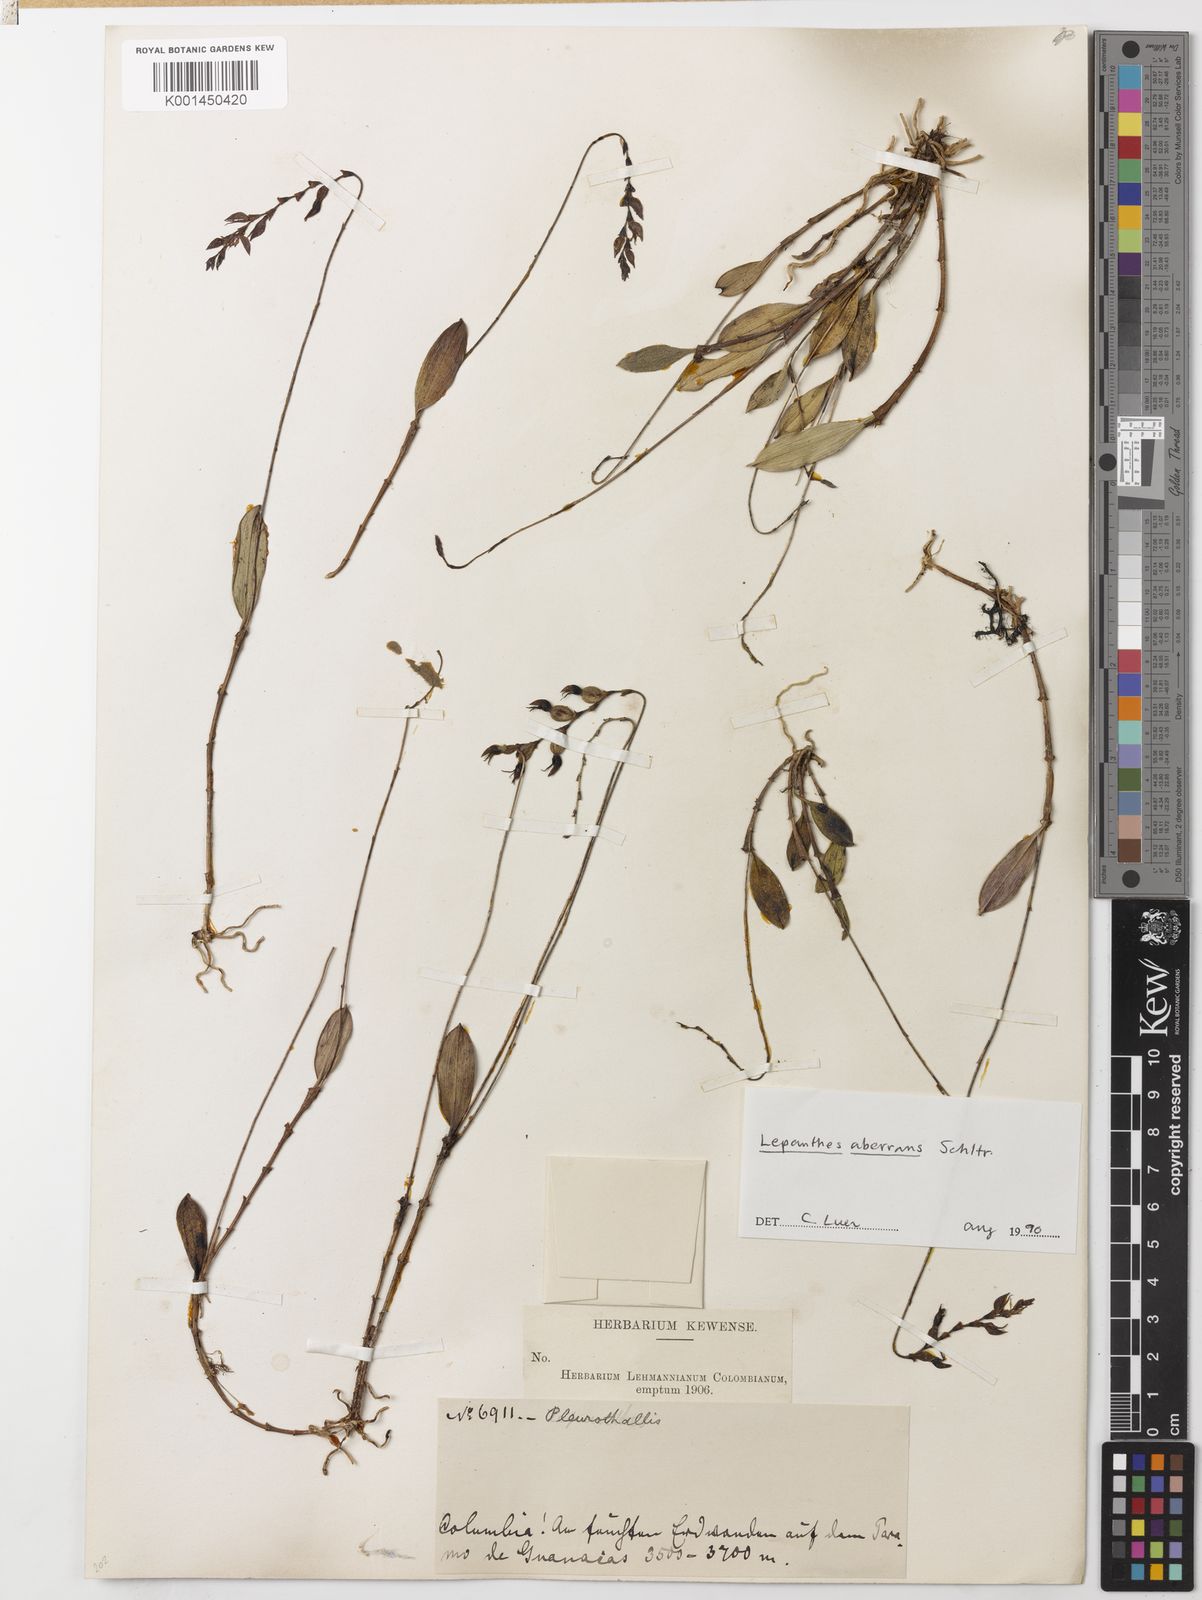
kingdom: Plantae
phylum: Tracheophyta
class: Liliopsida
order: Asparagales
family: Orchidaceae
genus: Draconanthes
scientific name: Draconanthes aberrans
